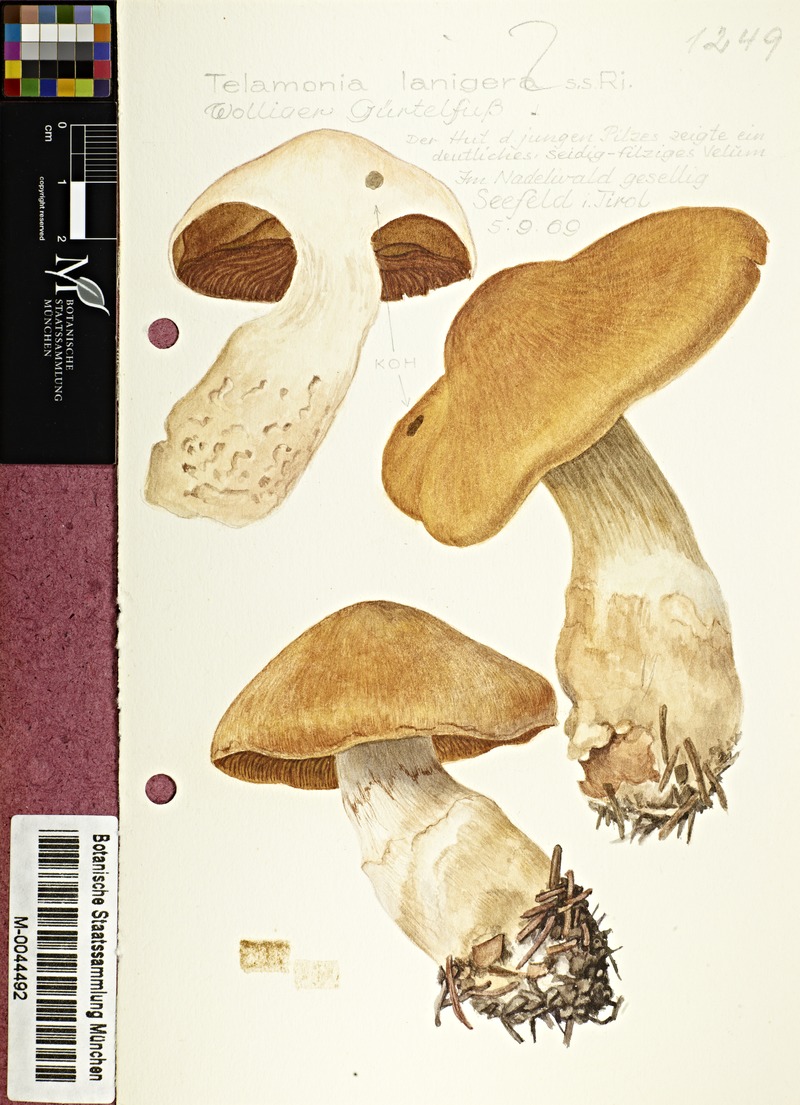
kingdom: Fungi
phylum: Basidiomycota
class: Agaricomycetes
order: Agaricales
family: Cortinariaceae
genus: Cortinarius
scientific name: Cortinarius laniger
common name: Woolly webcap
